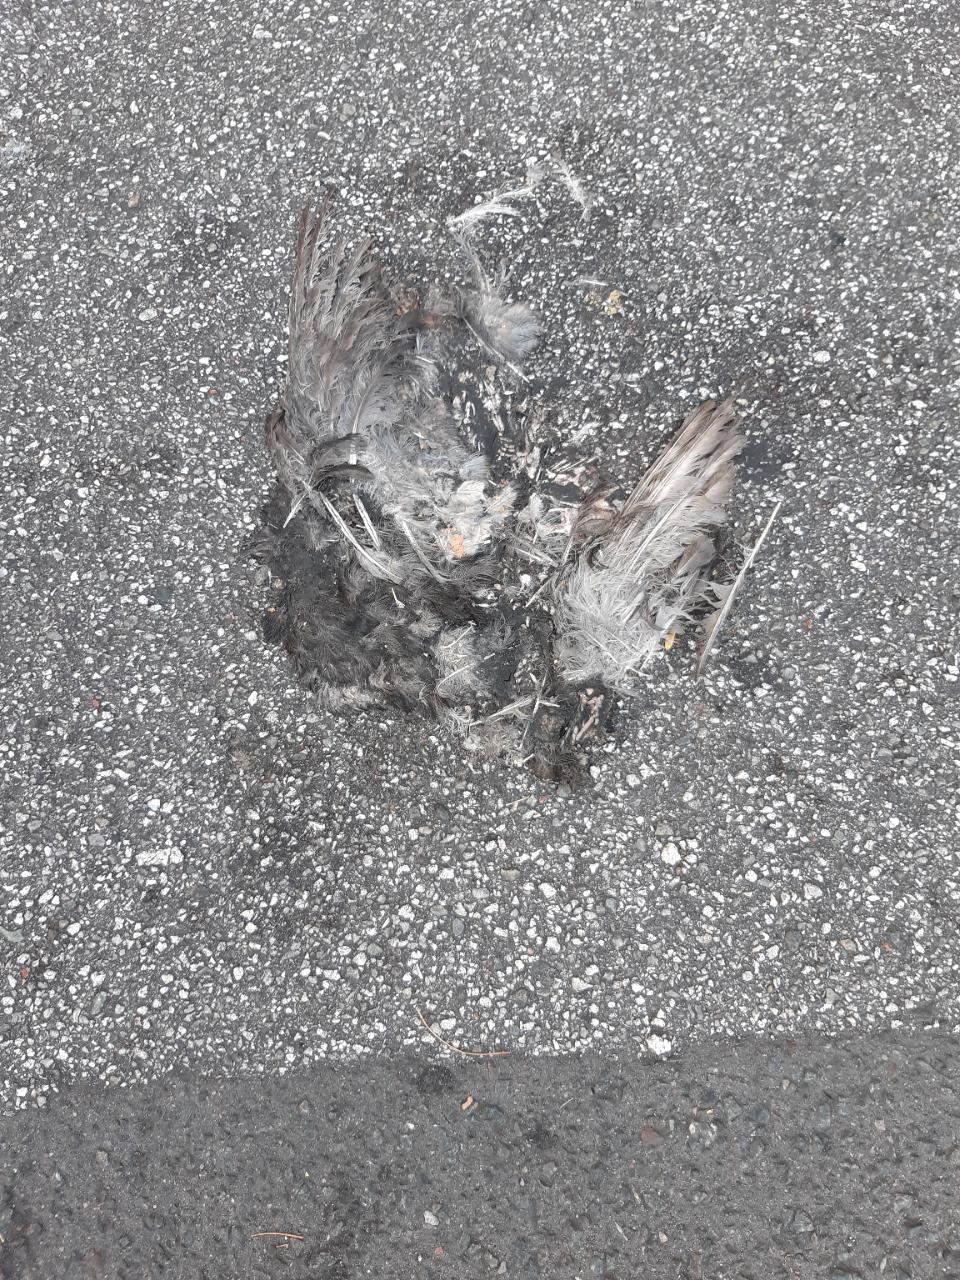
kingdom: Animalia
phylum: Chordata
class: Aves
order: Columbiformes
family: Columbidae
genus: Columba
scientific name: Columba livia
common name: Rock pigeon
